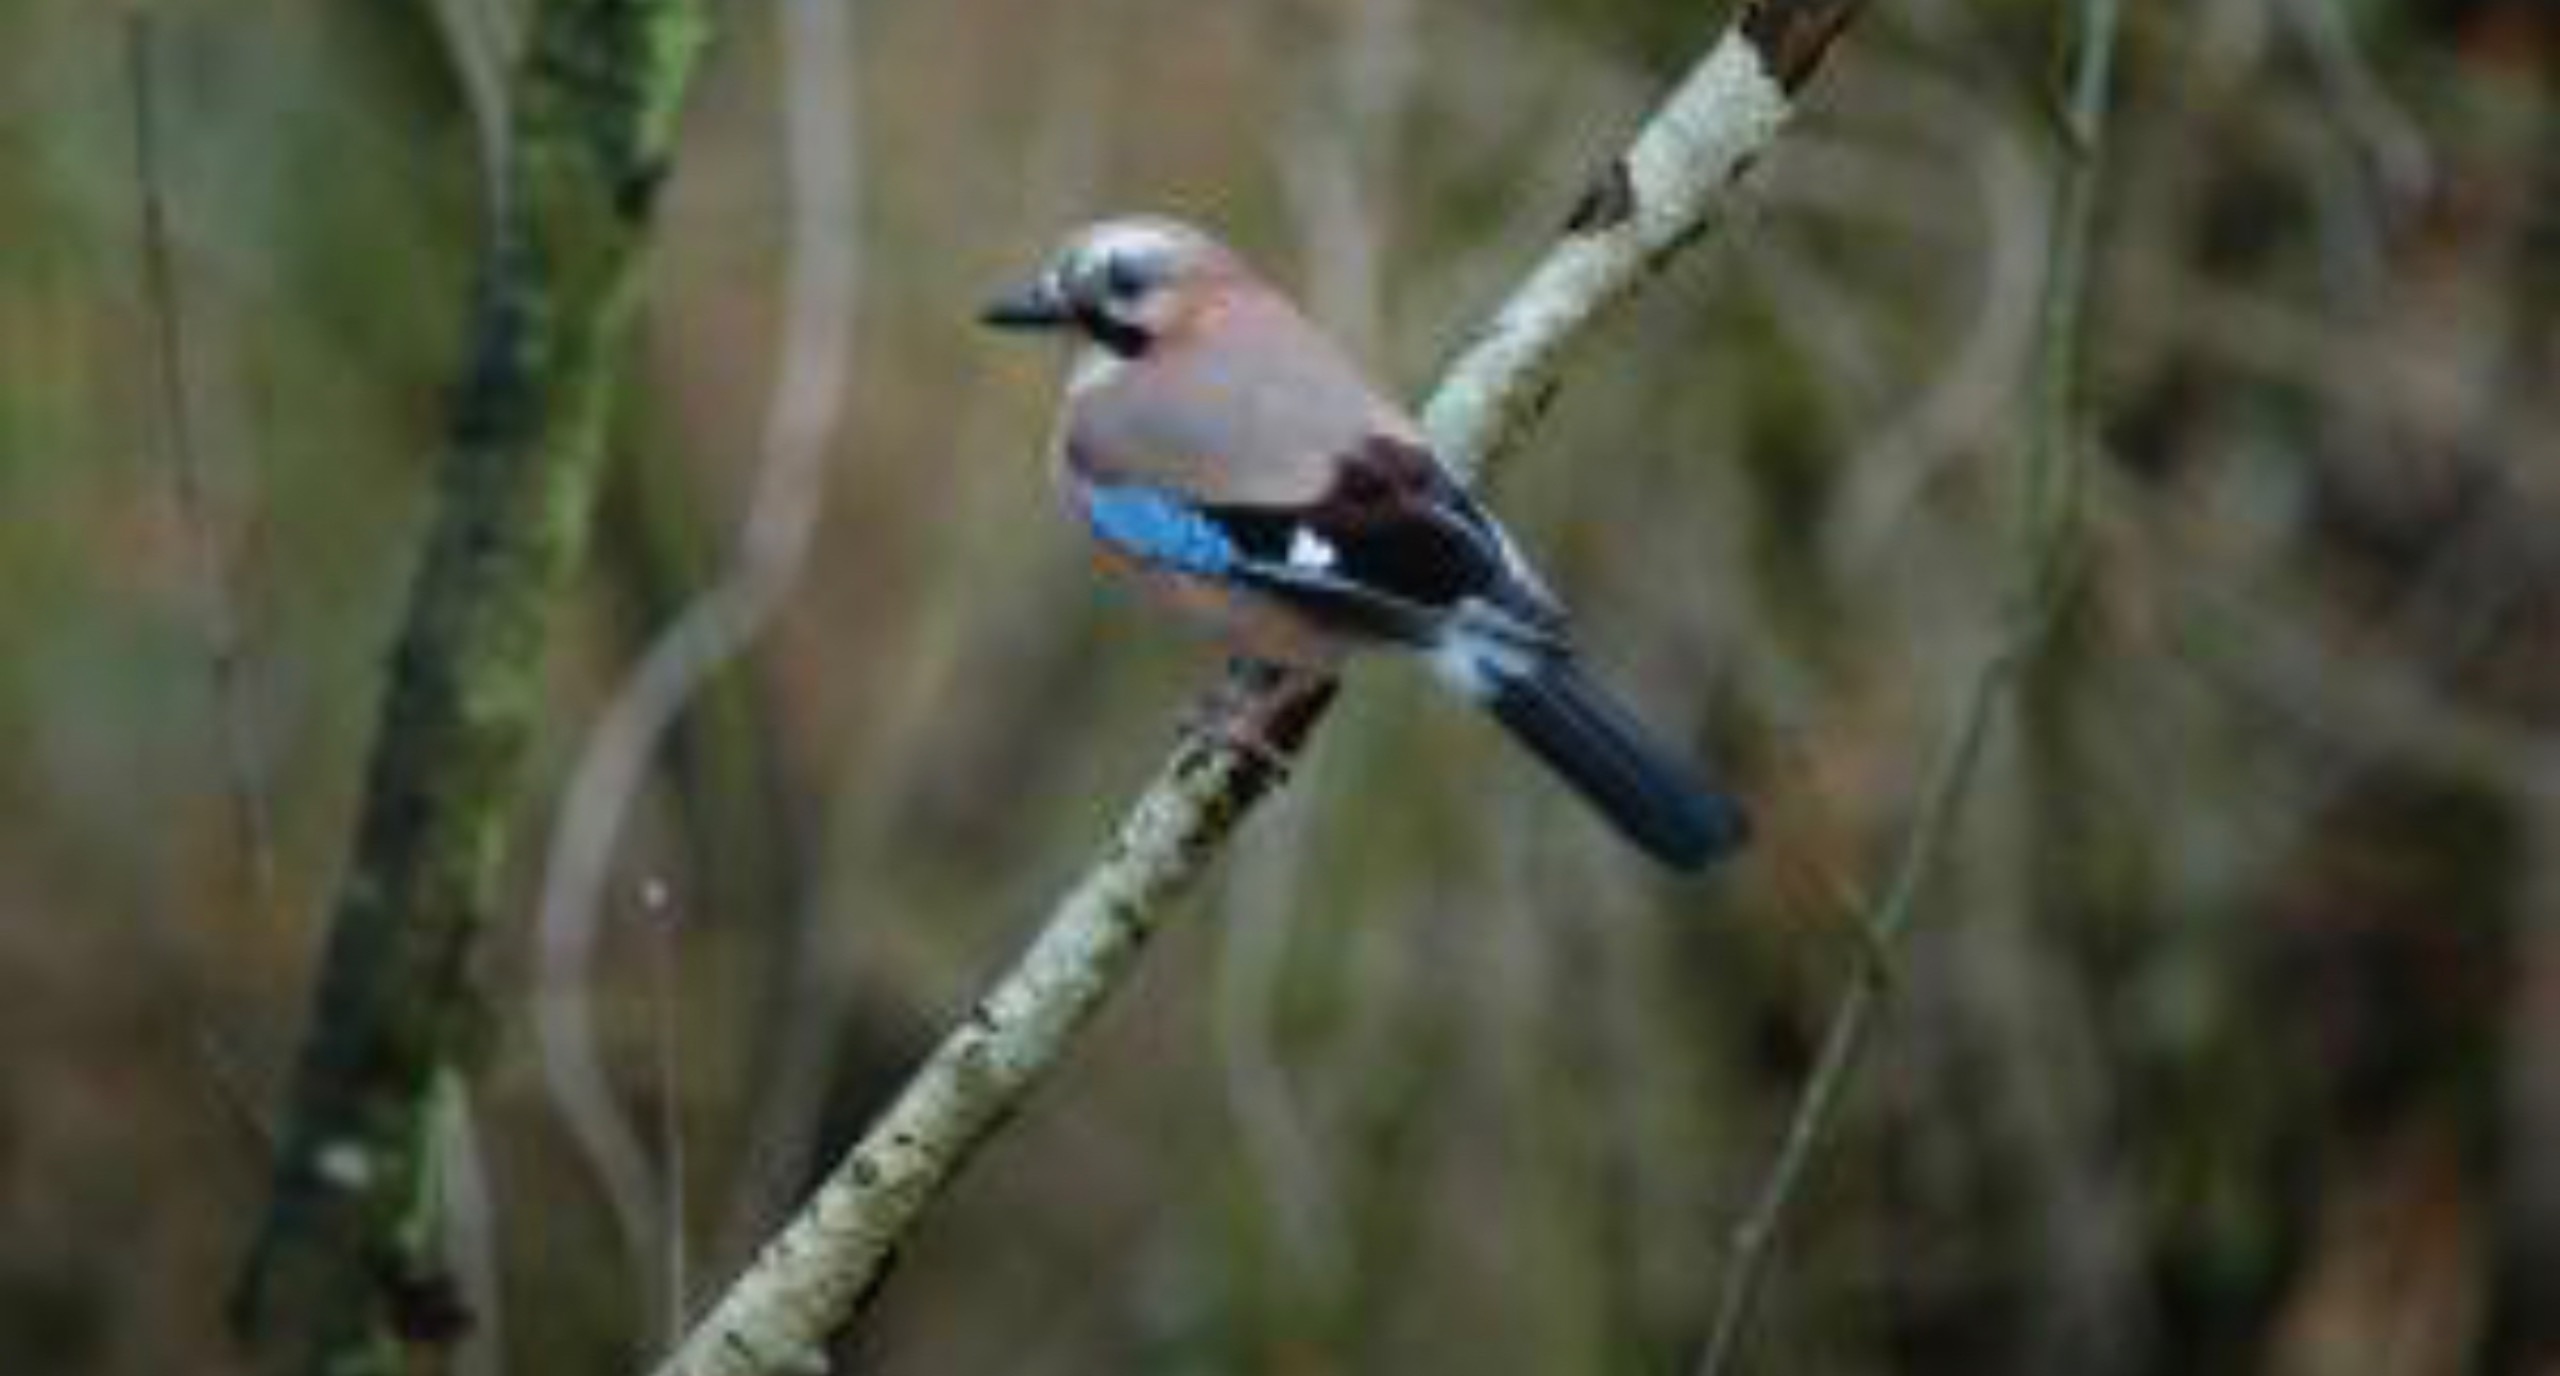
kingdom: Animalia
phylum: Chordata
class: Aves
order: Passeriformes
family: Corvidae
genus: Garrulus
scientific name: Garrulus glandarius
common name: Skovskade
